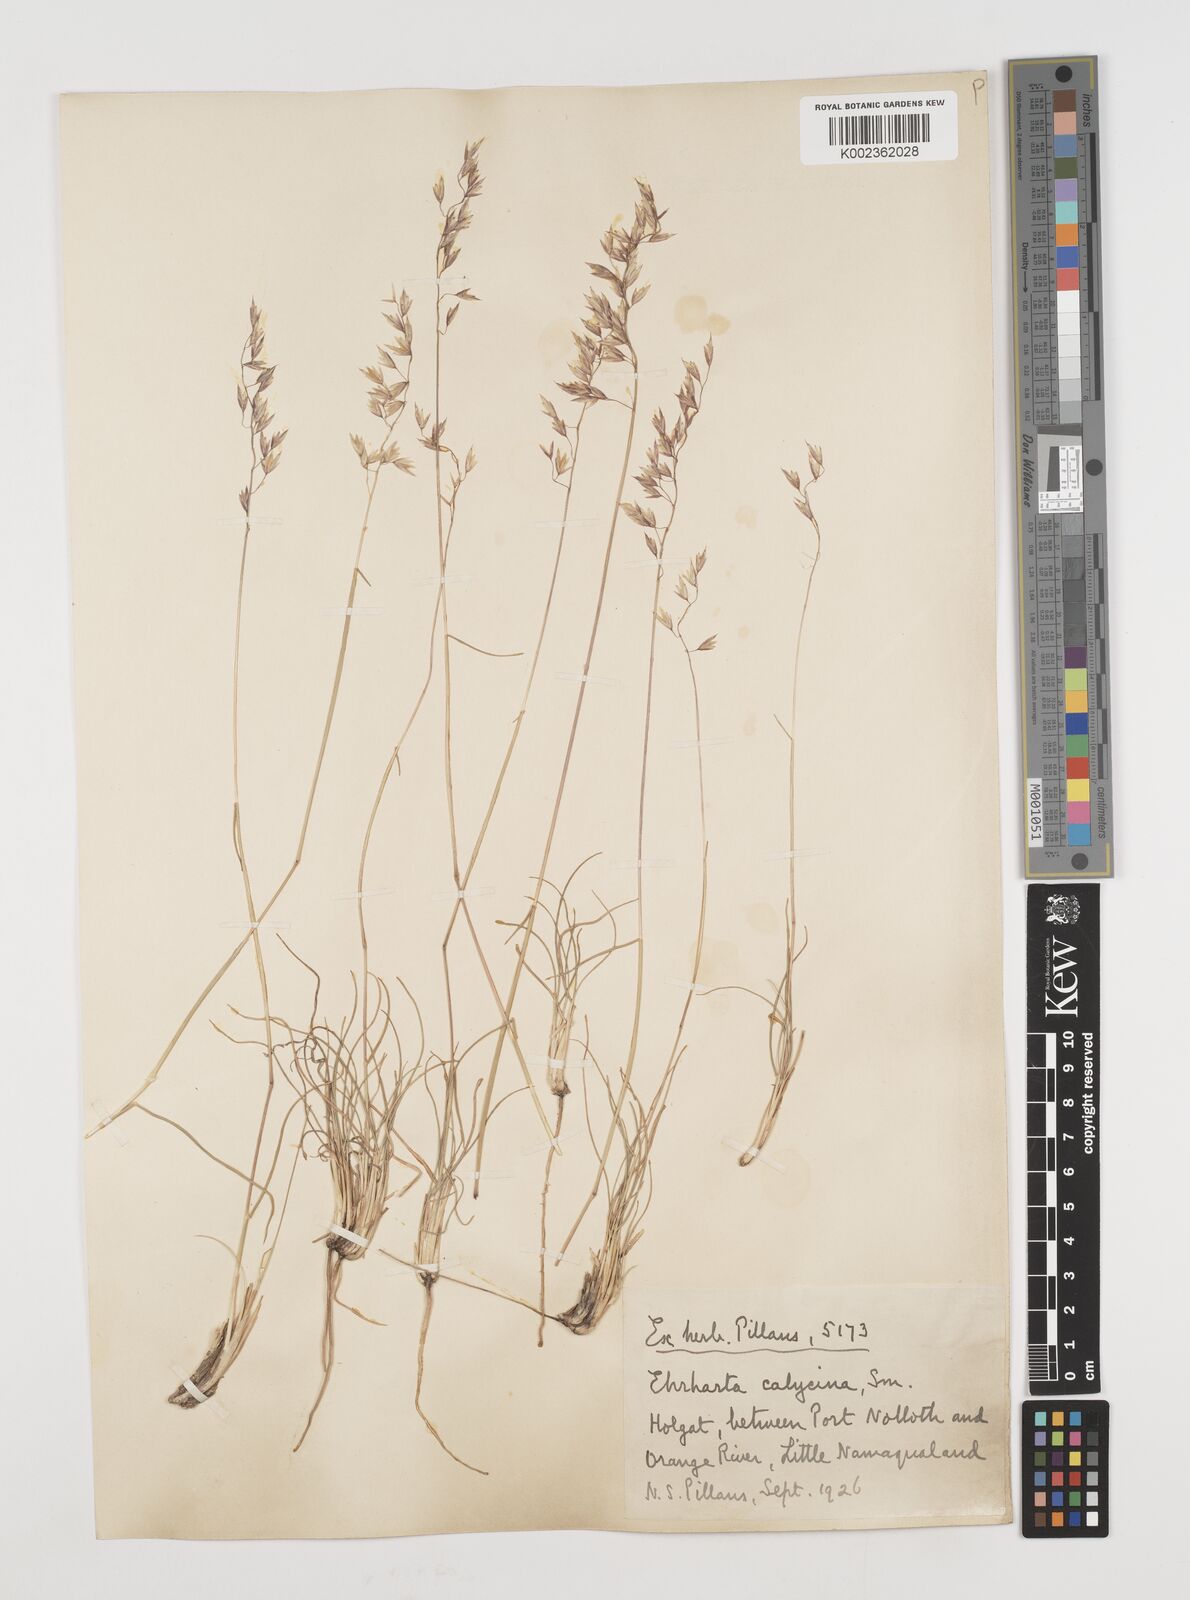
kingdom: Plantae
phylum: Tracheophyta
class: Liliopsida
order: Poales
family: Poaceae
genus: Ehrharta
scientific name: Ehrharta calycina
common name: Perennial veldtgrass
